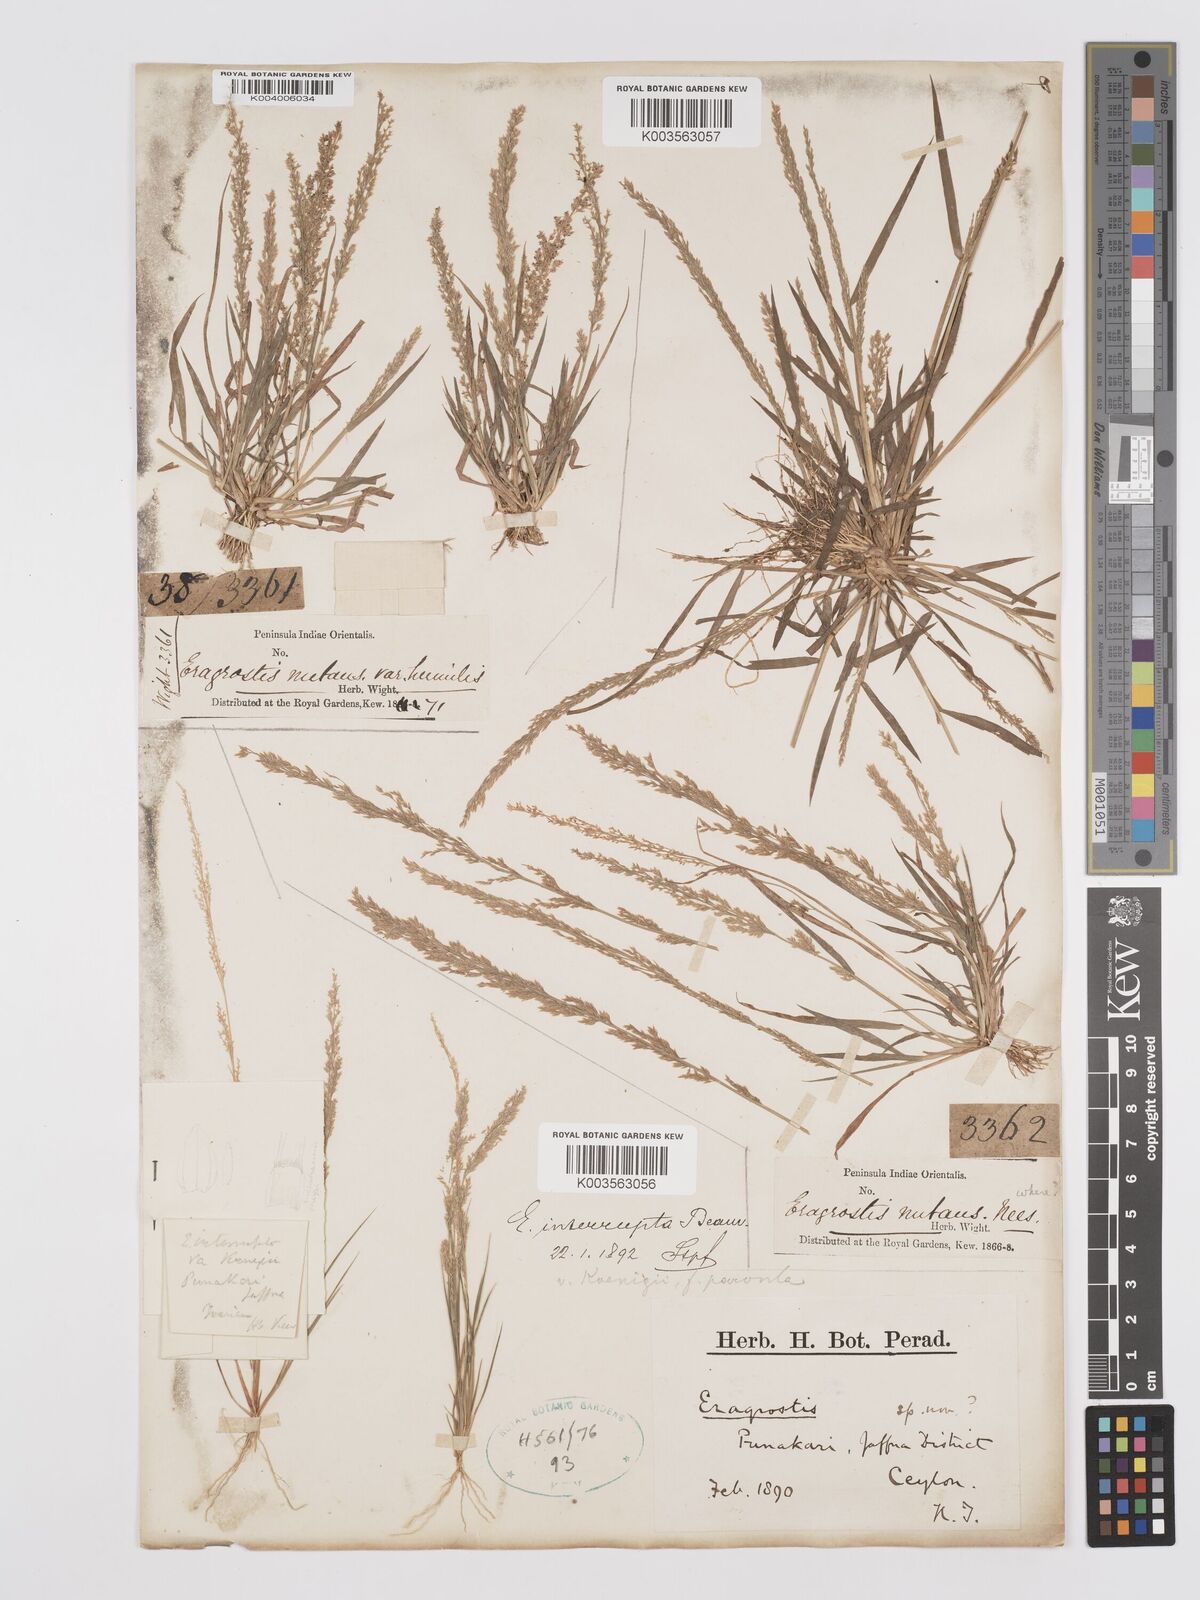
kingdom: Plantae
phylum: Tracheophyta
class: Liliopsida
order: Poales
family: Poaceae
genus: Eragrostis
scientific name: Eragrostis japonica
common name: Pond lovegrass
